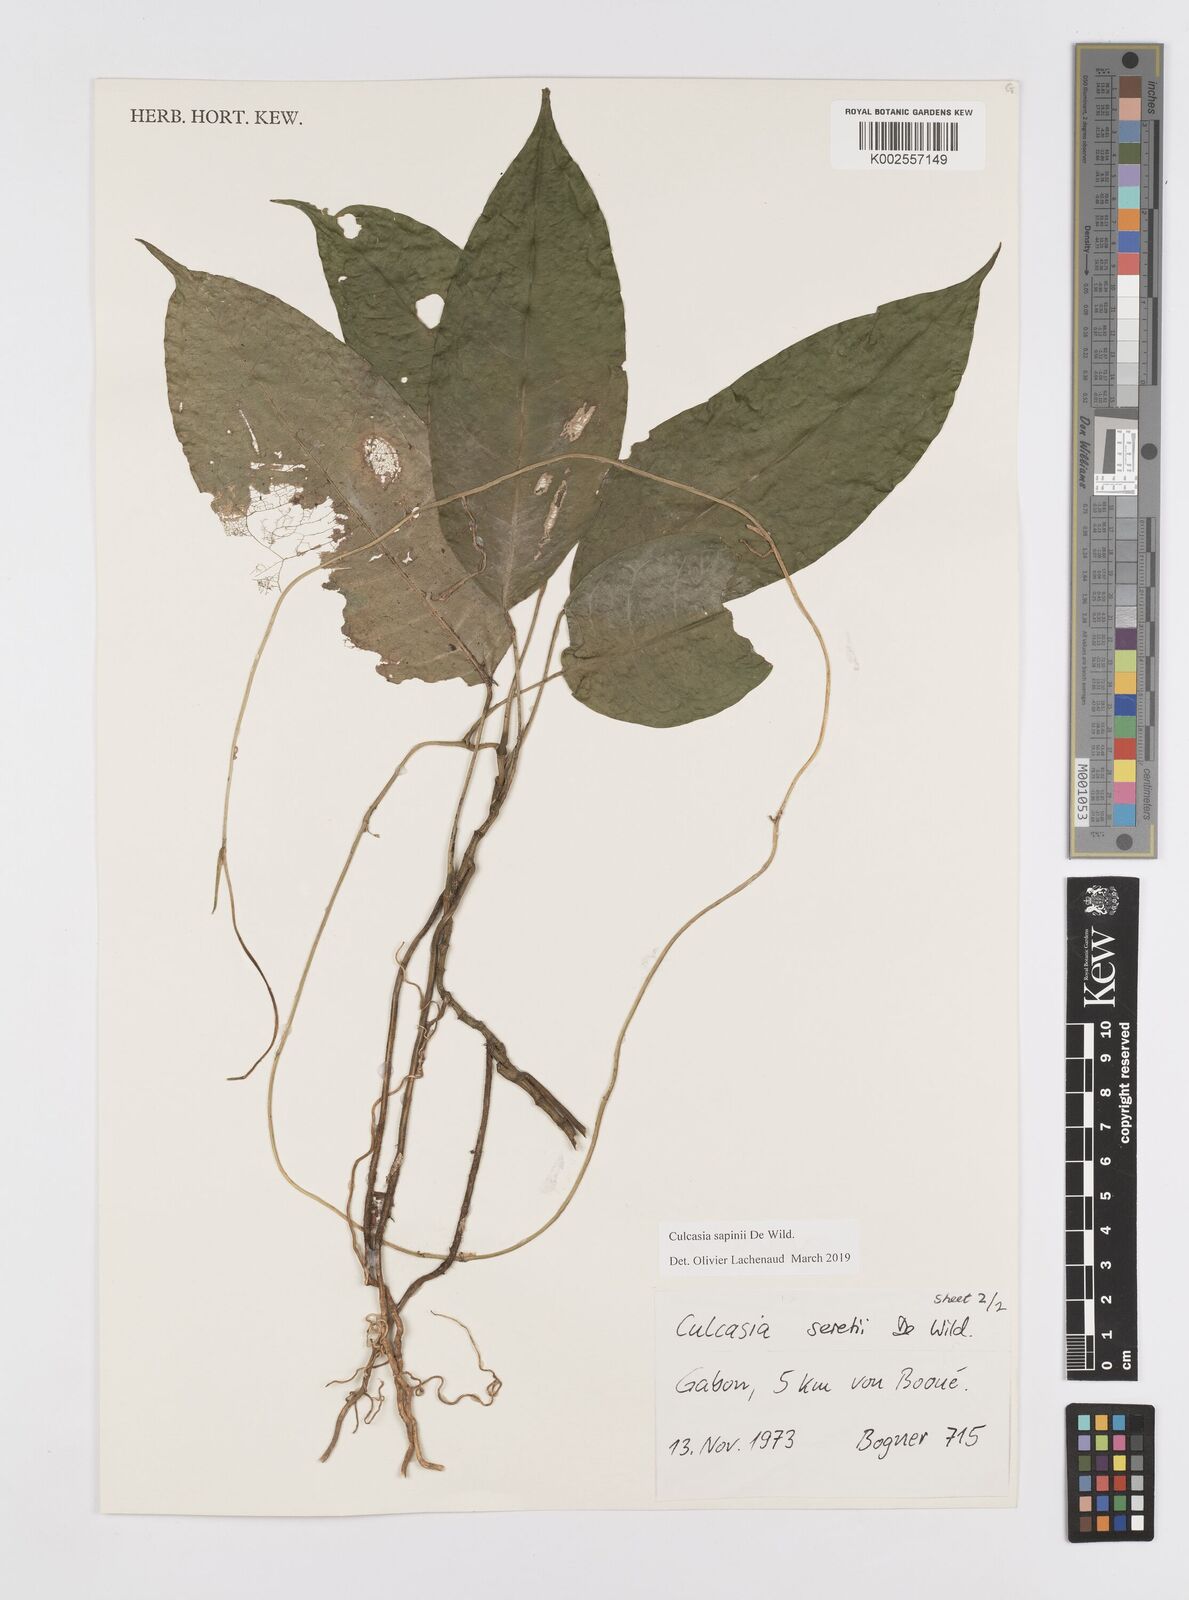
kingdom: Plantae
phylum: Tracheophyta
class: Liliopsida
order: Alismatales
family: Araceae
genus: Culcasia
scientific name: Culcasia seretii
